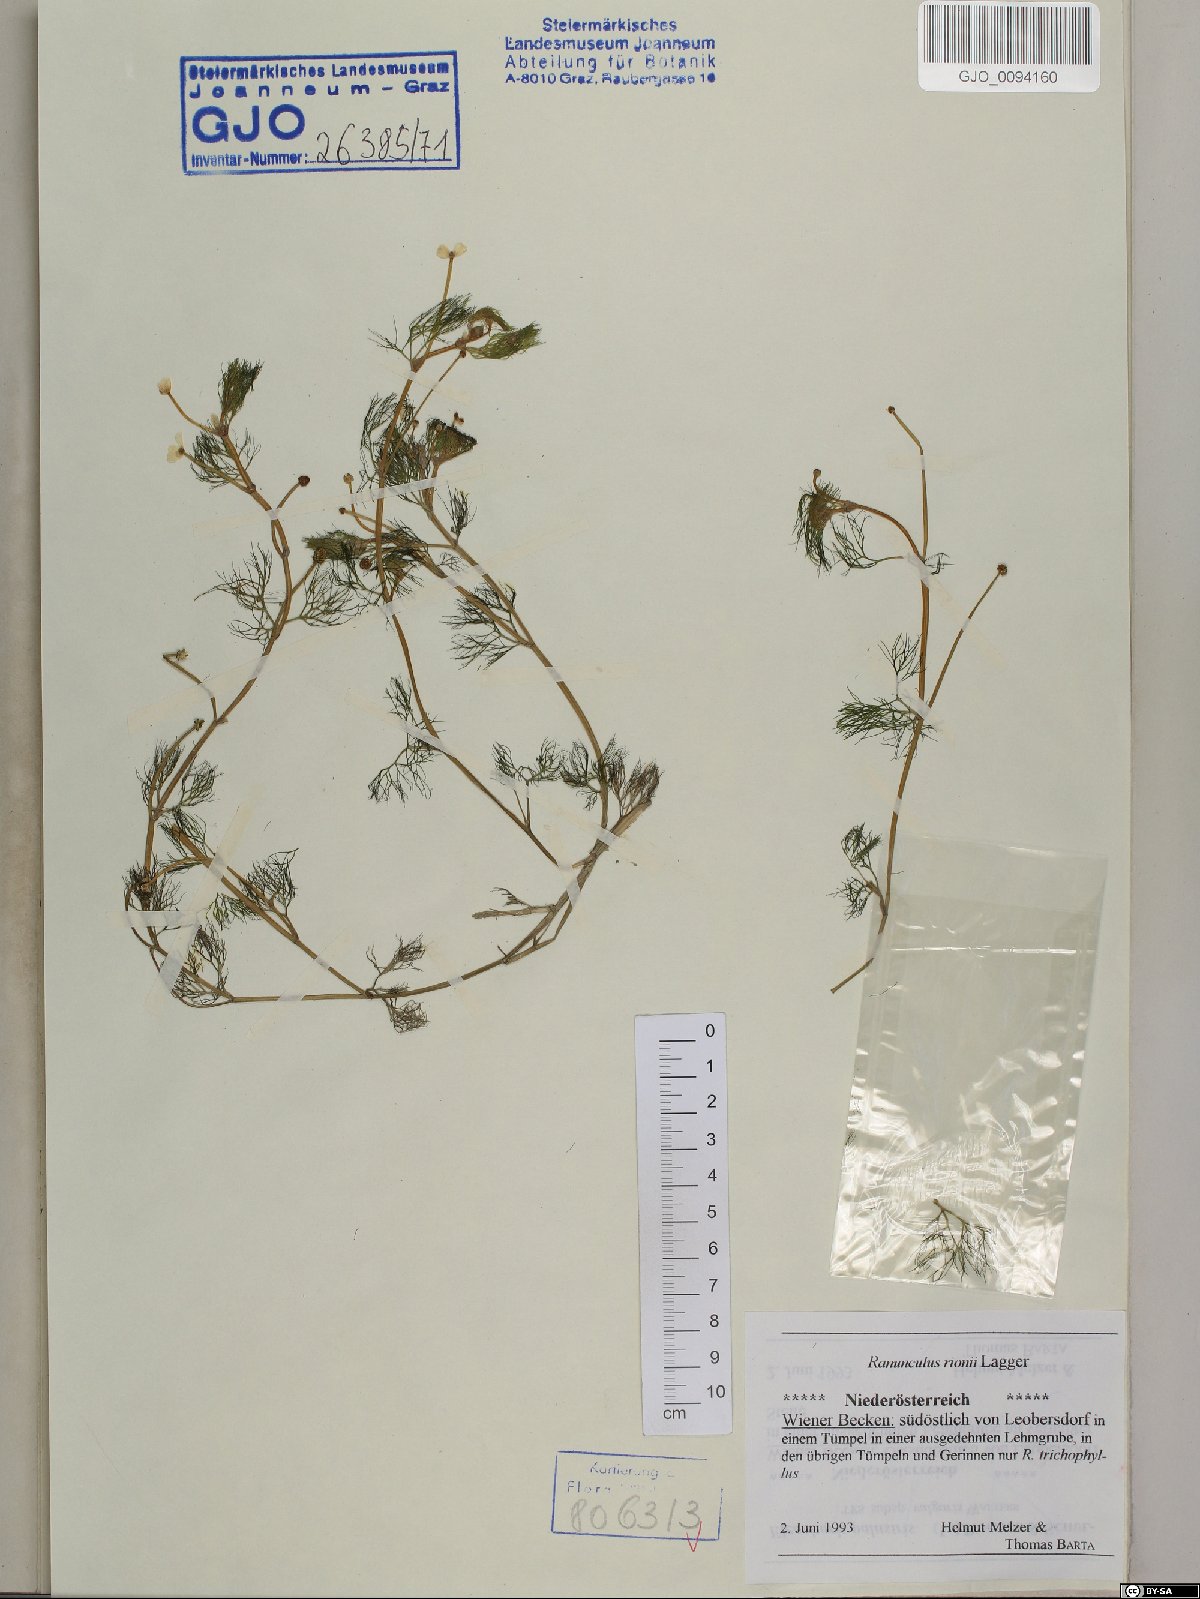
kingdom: Plantae
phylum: Tracheophyta
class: Magnoliopsida
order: Ranunculales
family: Ranunculaceae
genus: Ranunculus
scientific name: Ranunculus rionii
